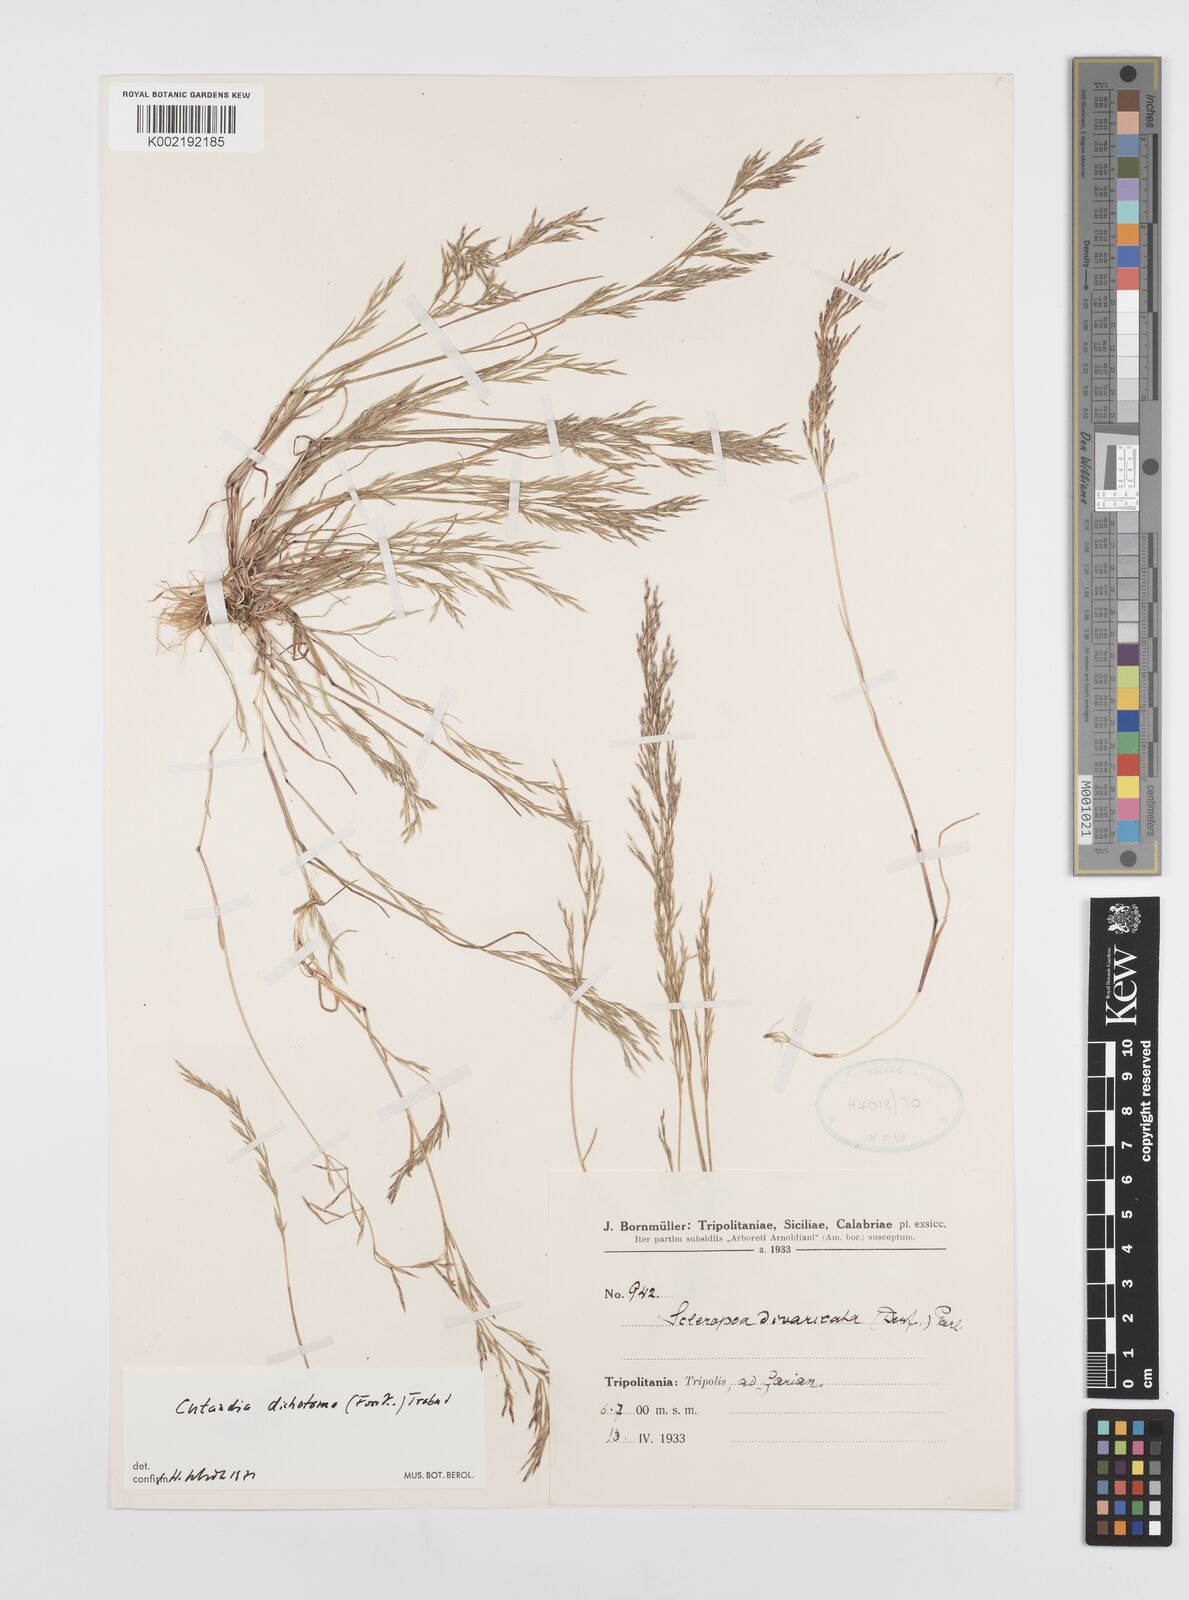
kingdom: Plantae
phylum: Tracheophyta
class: Liliopsida
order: Poales
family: Poaceae
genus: Cutandia
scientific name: Cutandia dichotoma
